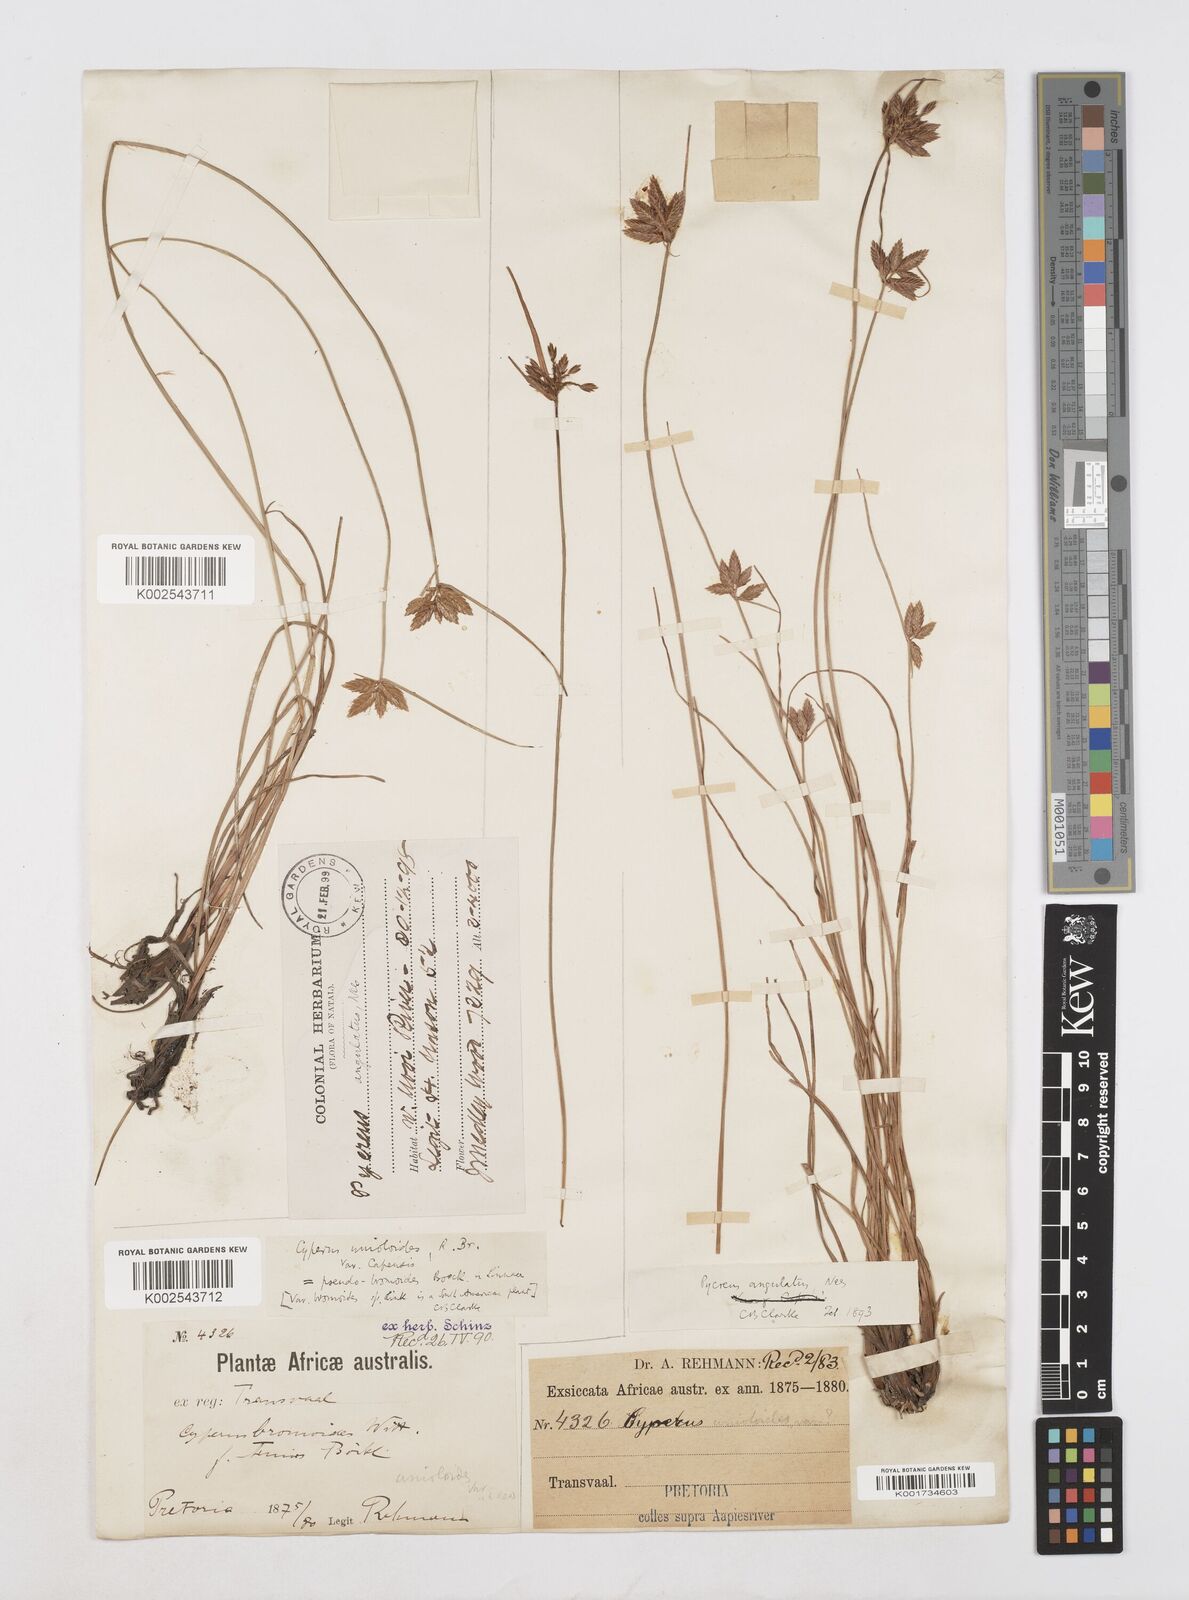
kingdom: Plantae
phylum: Tracheophyta
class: Liliopsida
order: Poales
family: Cyperaceae
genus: Cyperus
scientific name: Cyperus unioloides
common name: Uniola flatsedge
